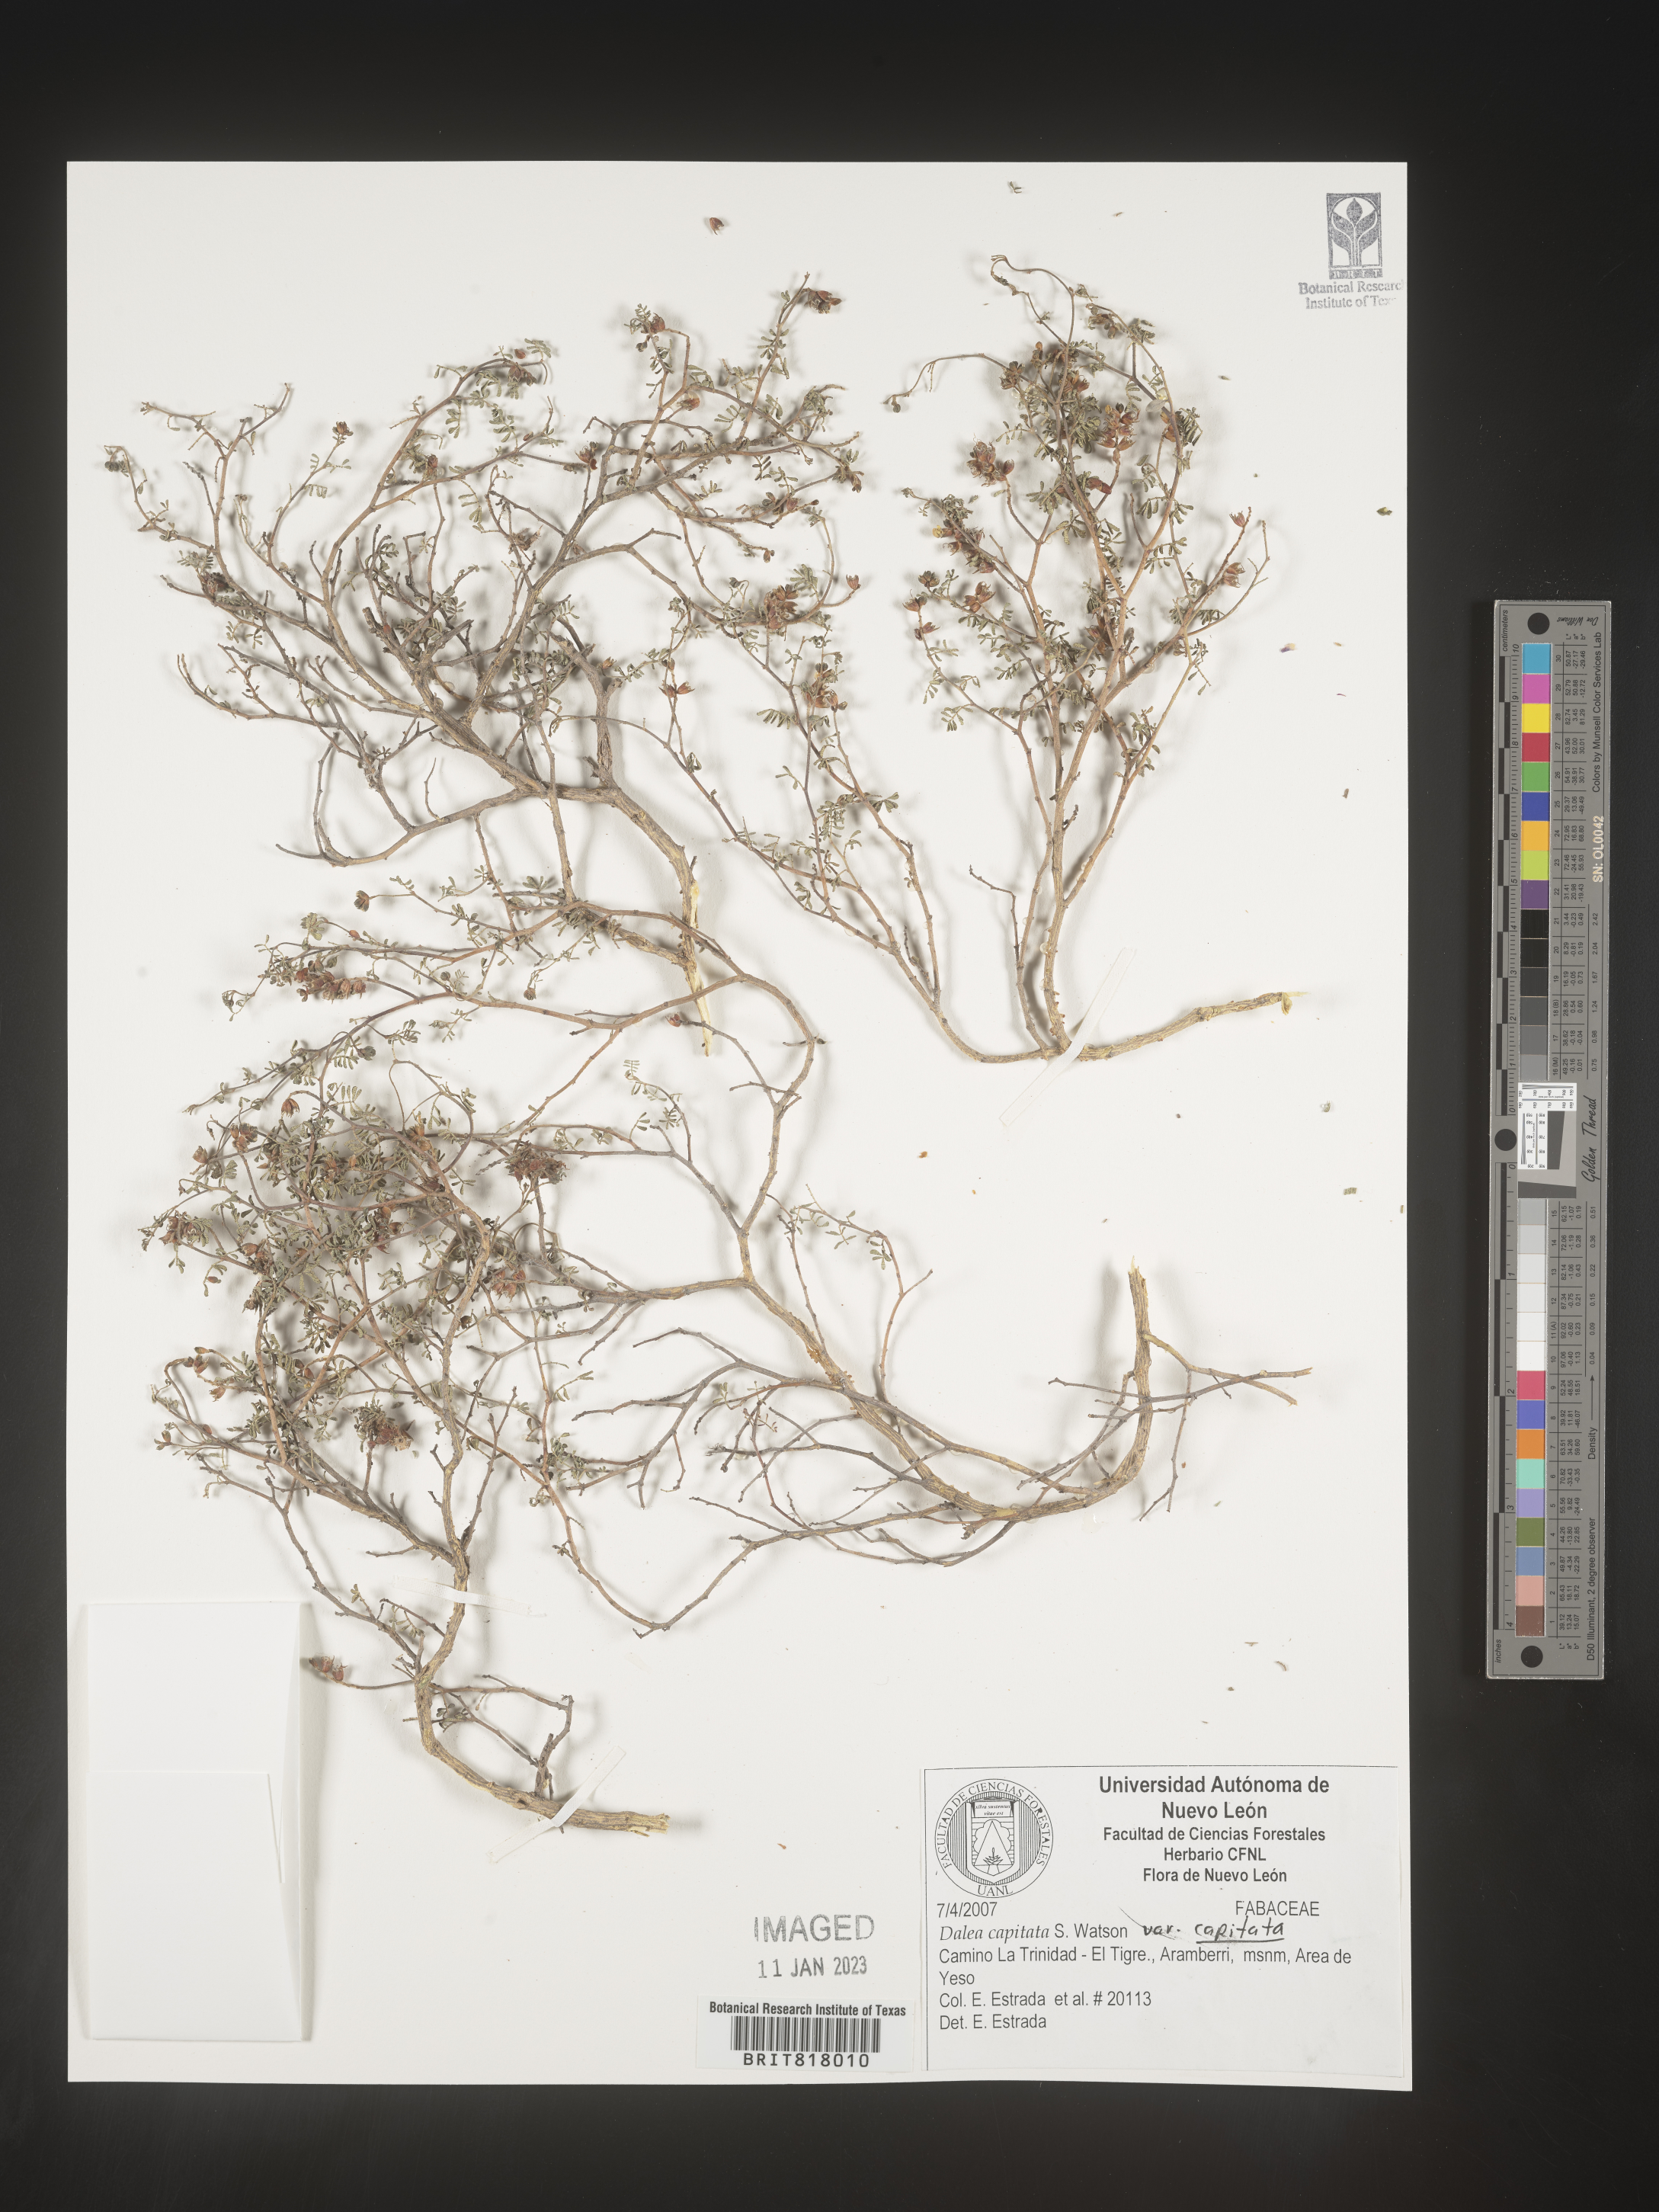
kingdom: Plantae
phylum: Tracheophyta
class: Magnoliopsida
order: Fabales
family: Fabaceae
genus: Dalea
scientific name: Dalea
